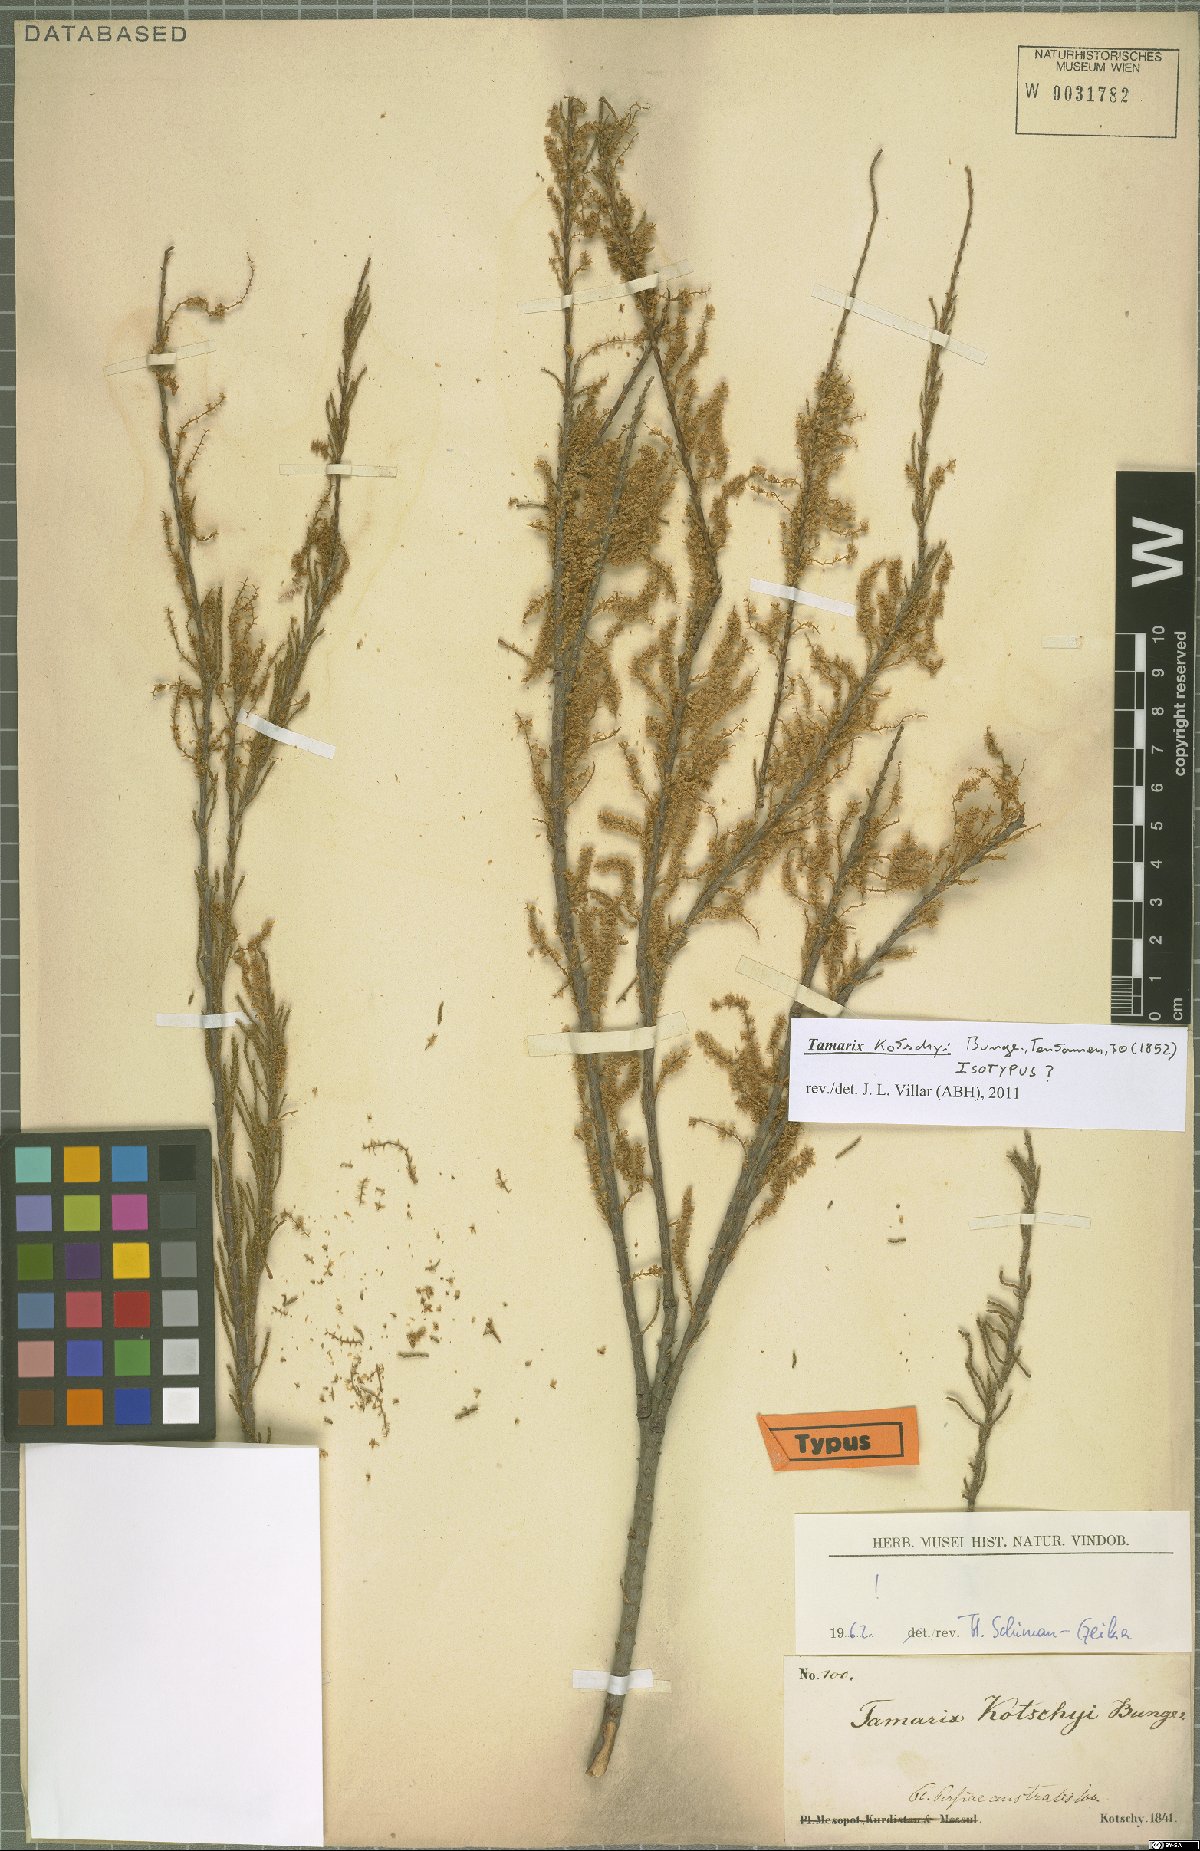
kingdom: Plantae
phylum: Tracheophyta
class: Magnoliopsida
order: Caryophyllales
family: Tamaricaceae
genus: Tamarix
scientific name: Tamarix kotschyi
